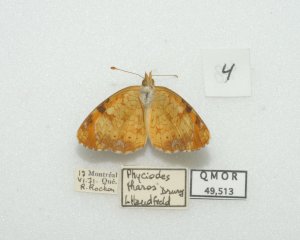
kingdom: Animalia
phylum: Arthropoda
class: Insecta
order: Lepidoptera
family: Nymphalidae
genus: Phyciodes
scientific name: Phyciodes tharos
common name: Northern Crescent
